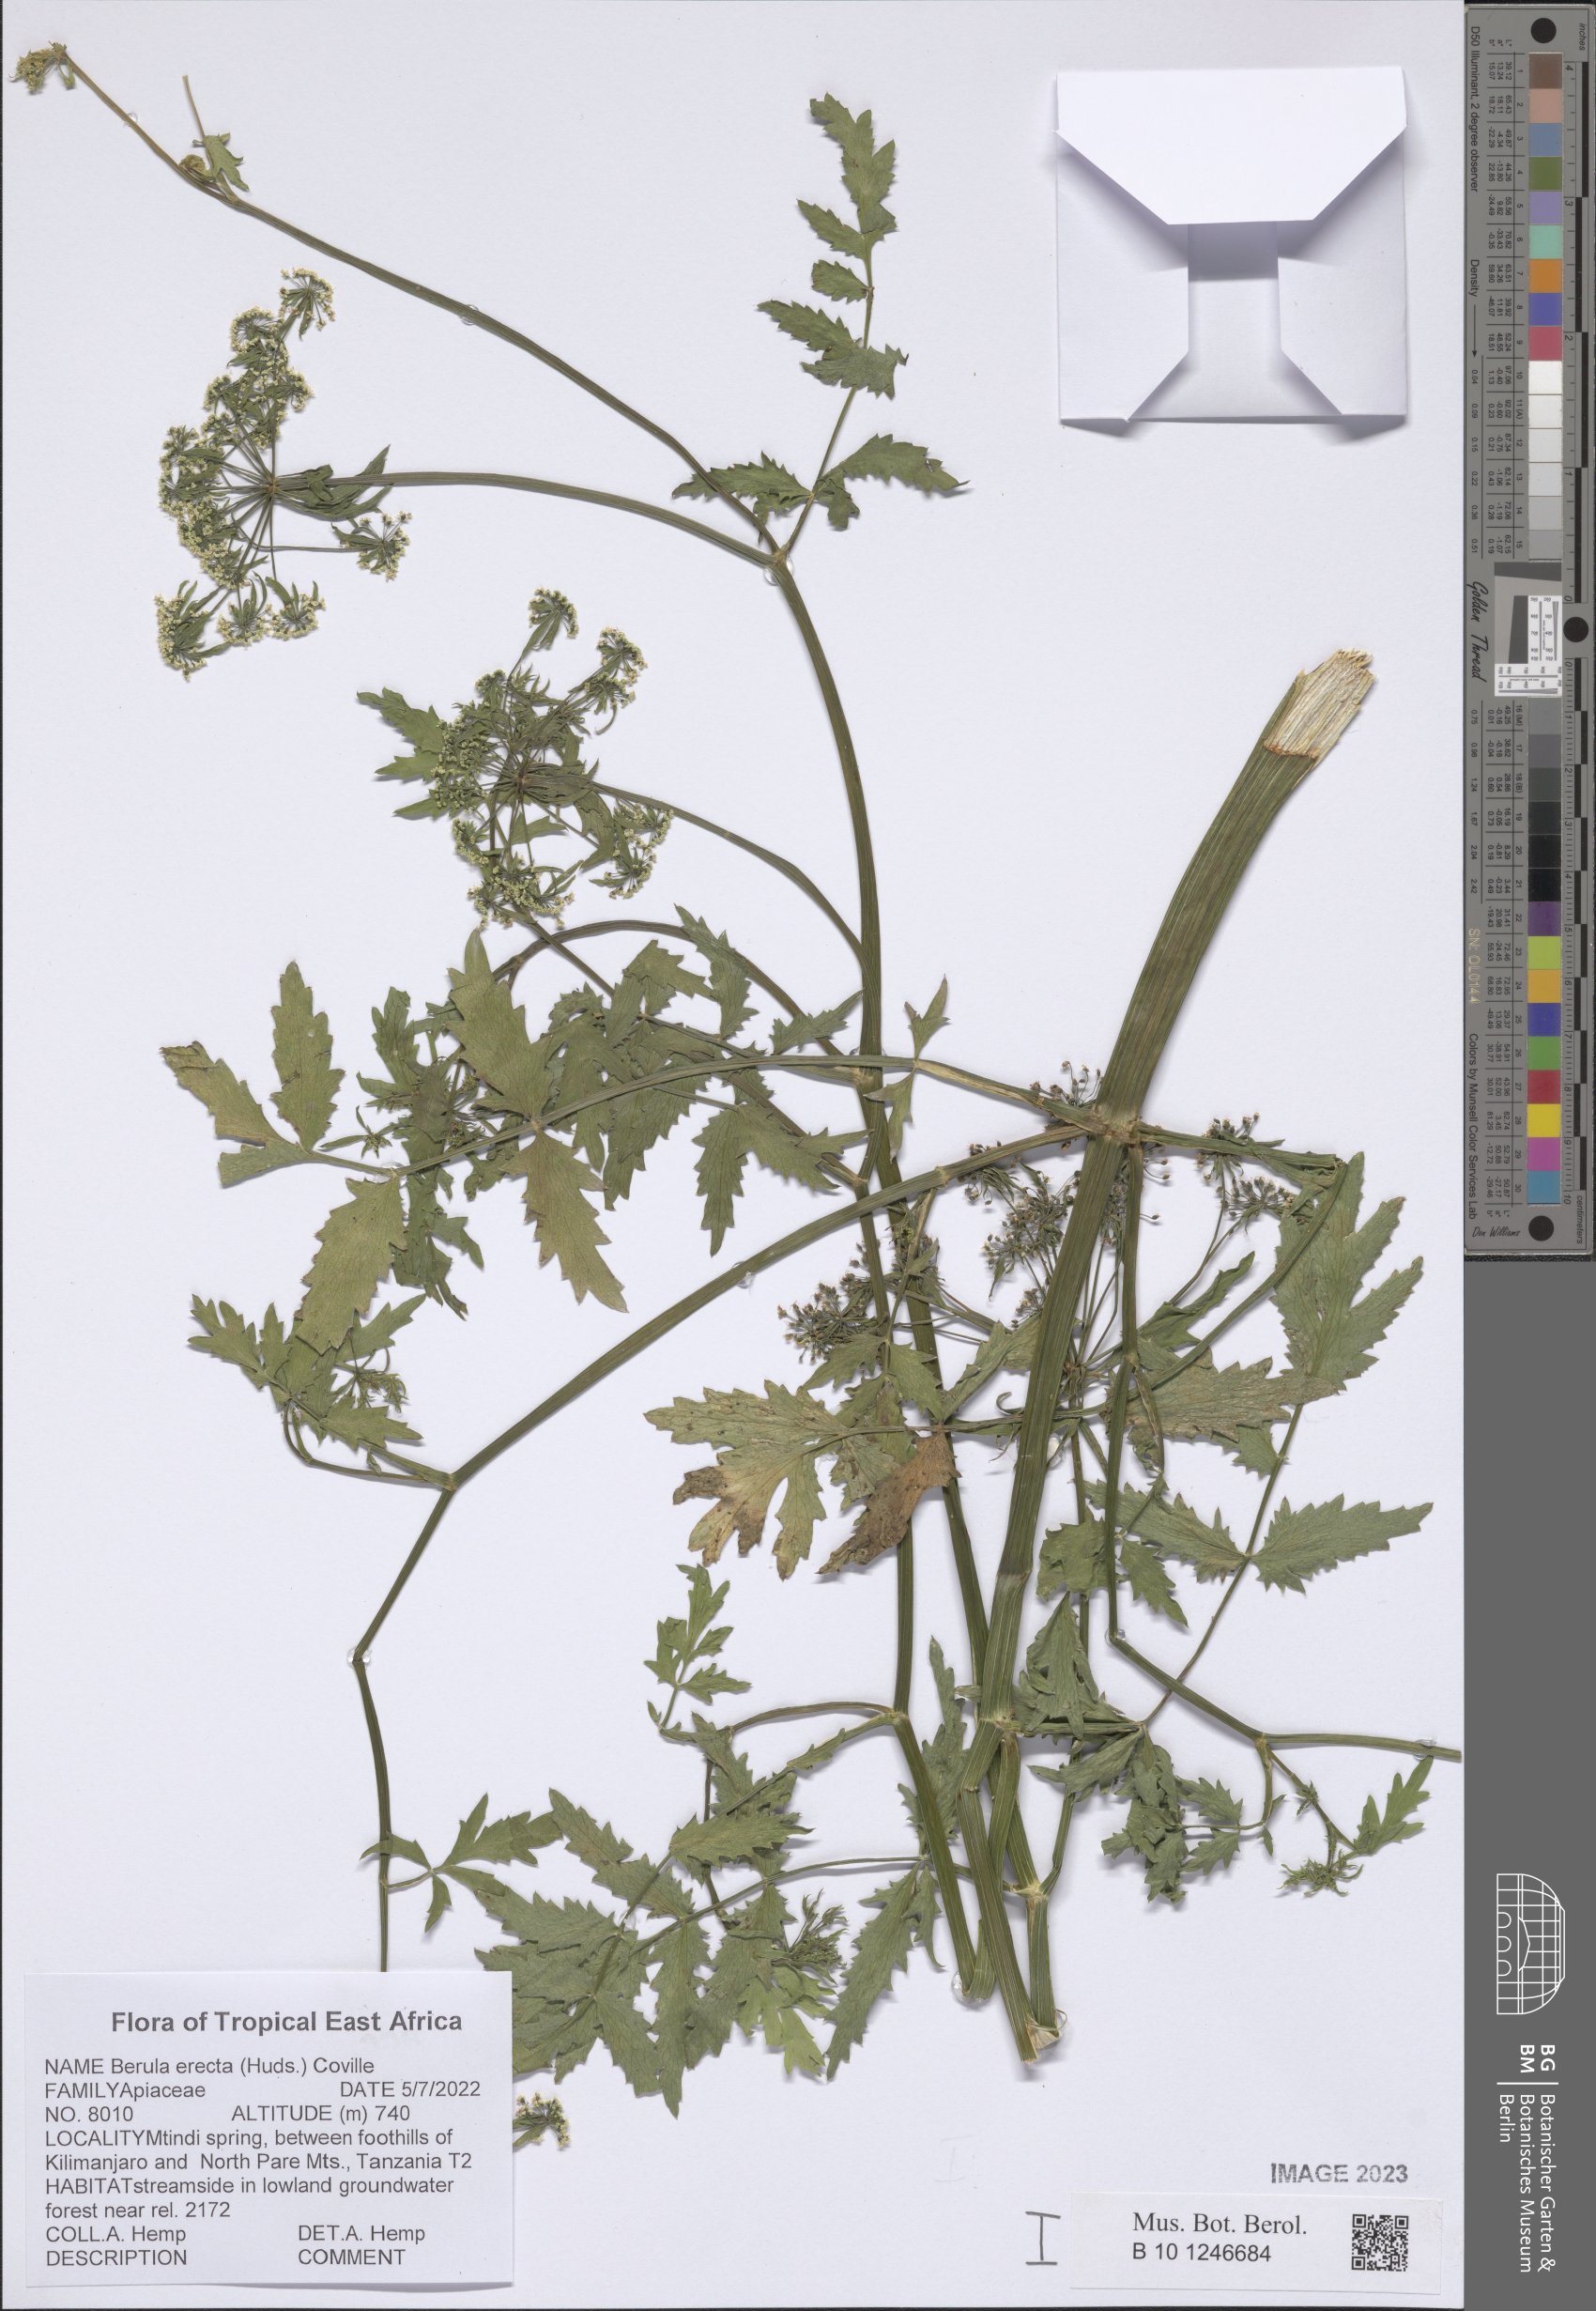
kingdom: Plantae
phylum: Tracheophyta
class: Magnoliopsida
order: Apiales
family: Apiaceae
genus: Berula
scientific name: Berula erecta
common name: Lesser water-parsnip
